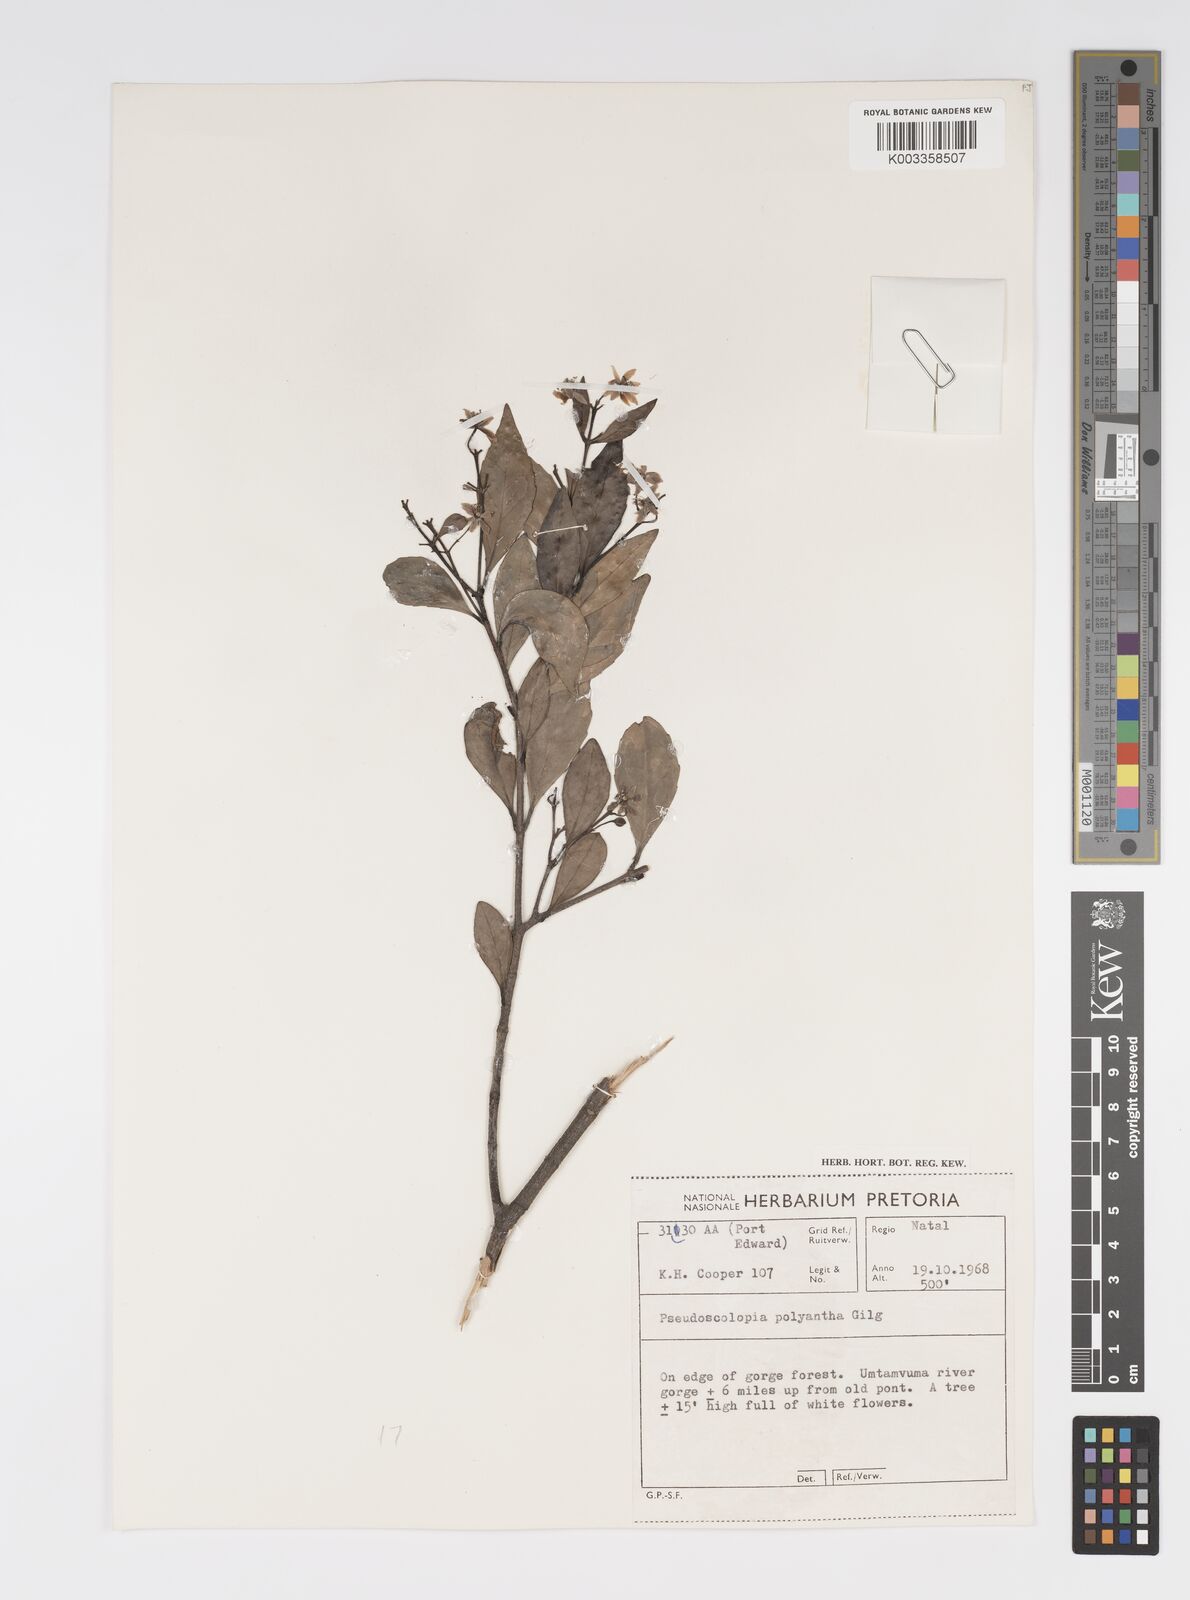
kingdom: Plantae
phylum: Tracheophyta
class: Magnoliopsida
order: Malpighiales
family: Salicaceae
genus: Pseudoscolopia
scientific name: Pseudoscolopia polyantha
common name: Sandstone red-stem
